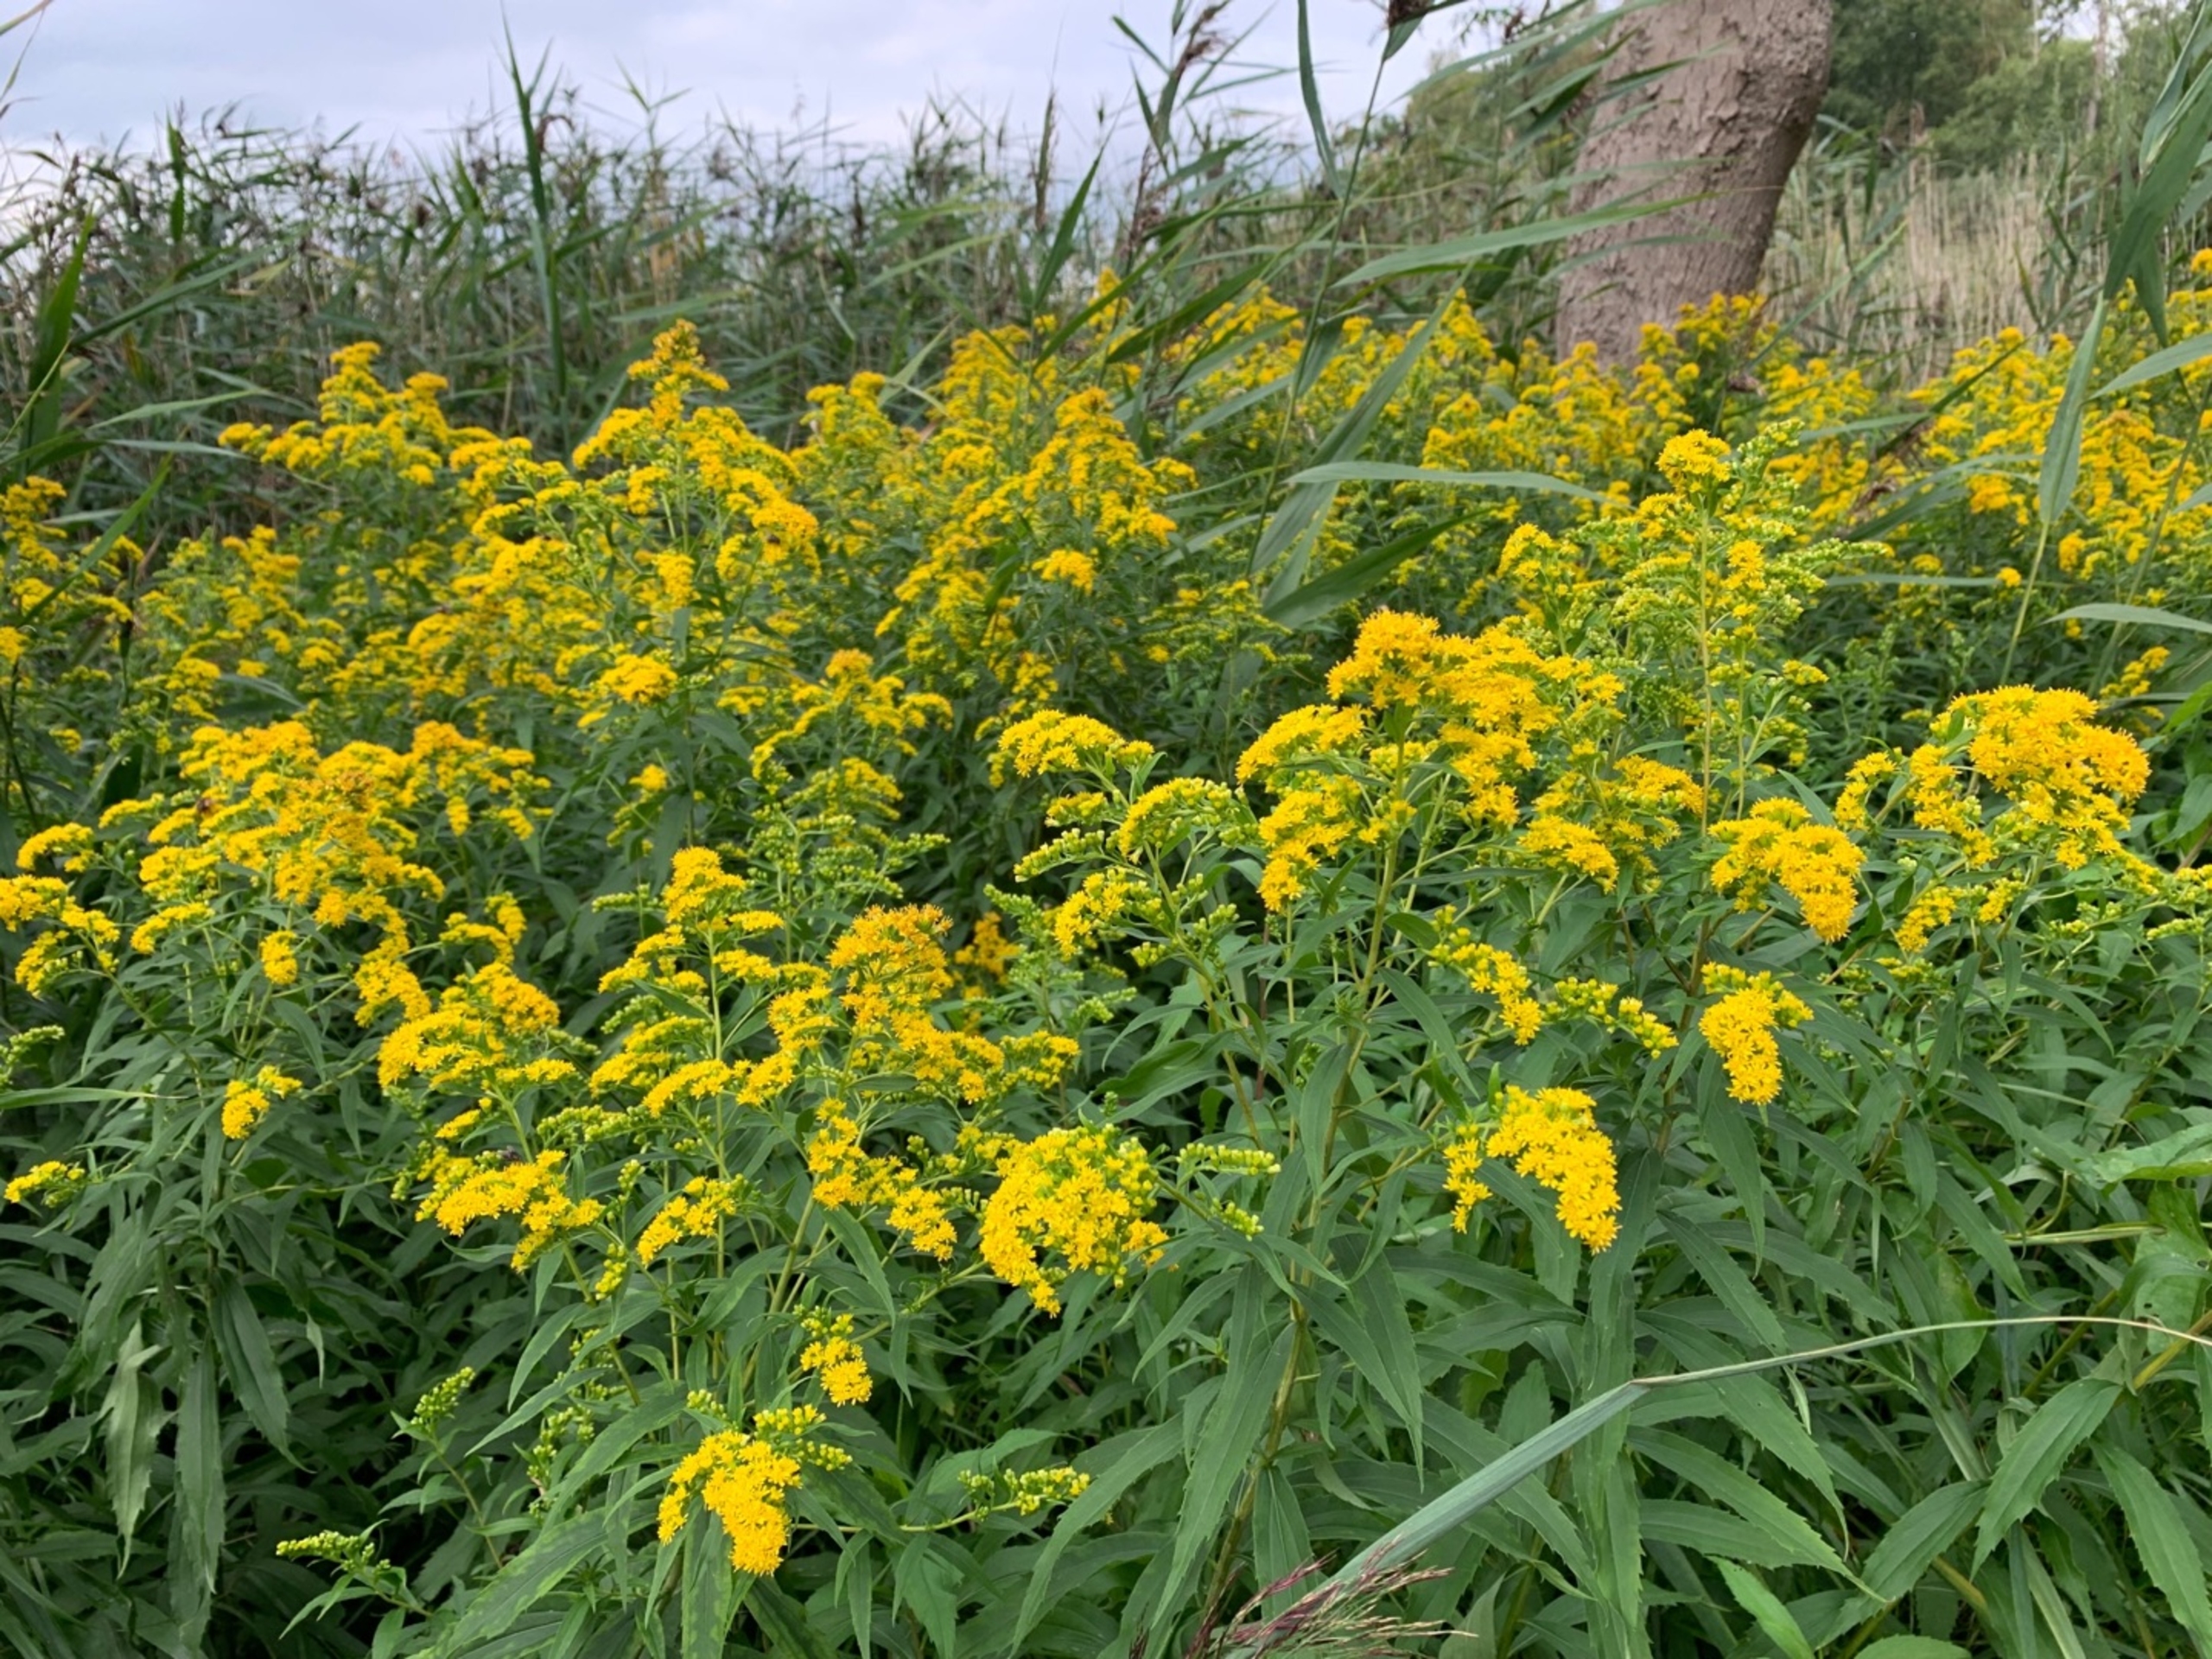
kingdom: Plantae
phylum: Tracheophyta
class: Magnoliopsida
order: Asterales
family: Asteraceae
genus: Solidago
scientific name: Solidago gigantea
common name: Sildig gyldenris
